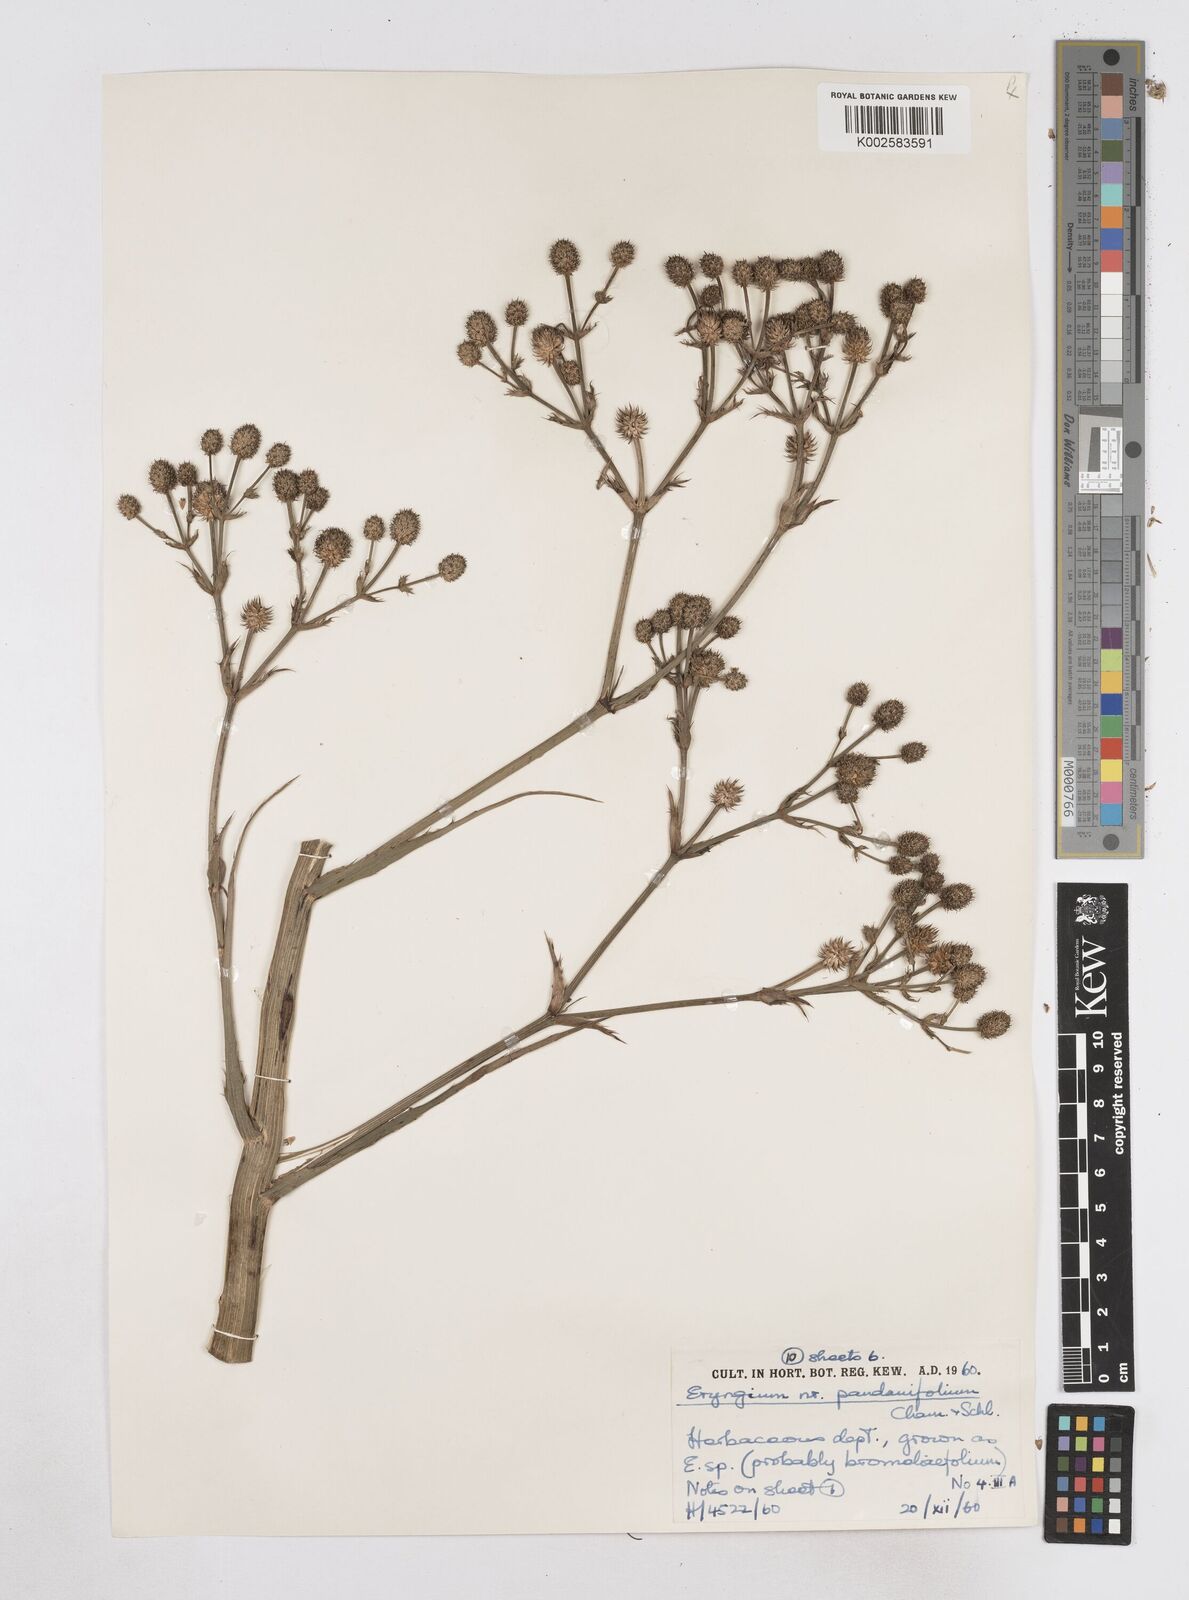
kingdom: Plantae
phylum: Tracheophyta
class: Magnoliopsida
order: Apiales
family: Apiaceae
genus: Eryngium
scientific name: Eryngium pandanifolium
